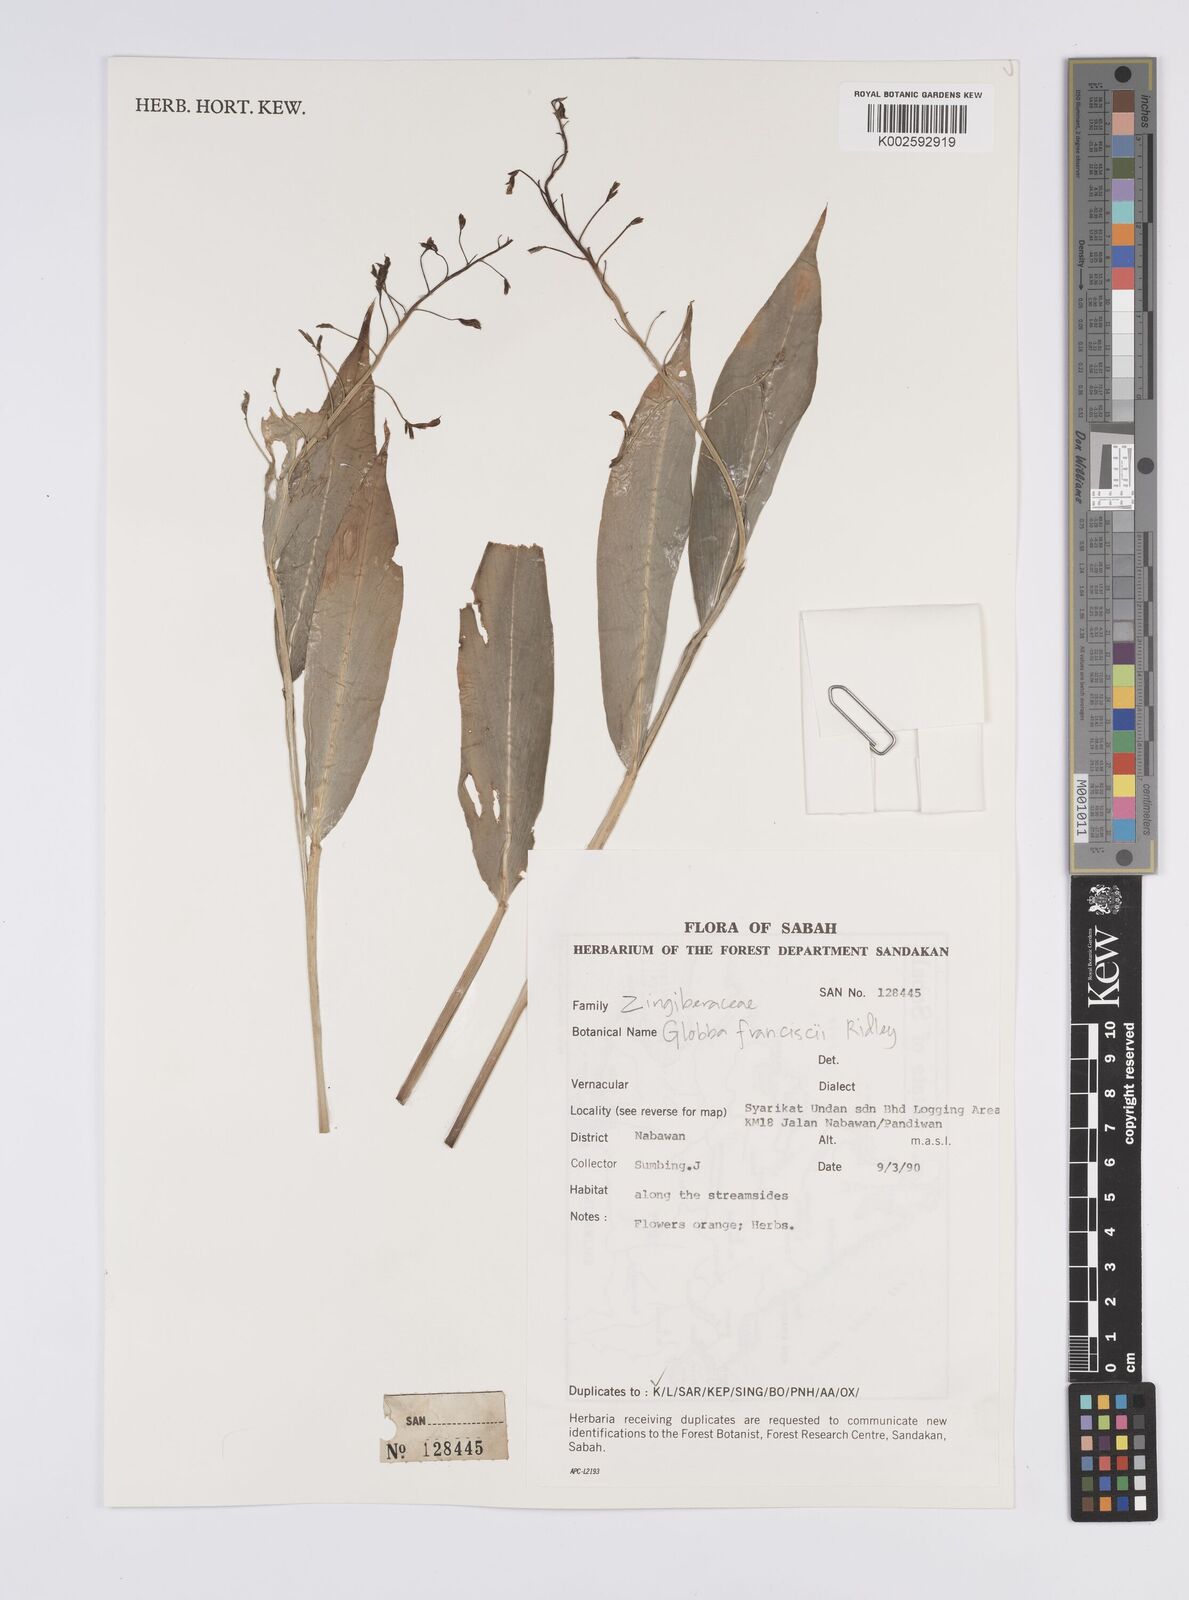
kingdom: Plantae
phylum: Tracheophyta
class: Liliopsida
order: Zingiberales
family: Zingiberaceae
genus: Globba
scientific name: Globba francisci
